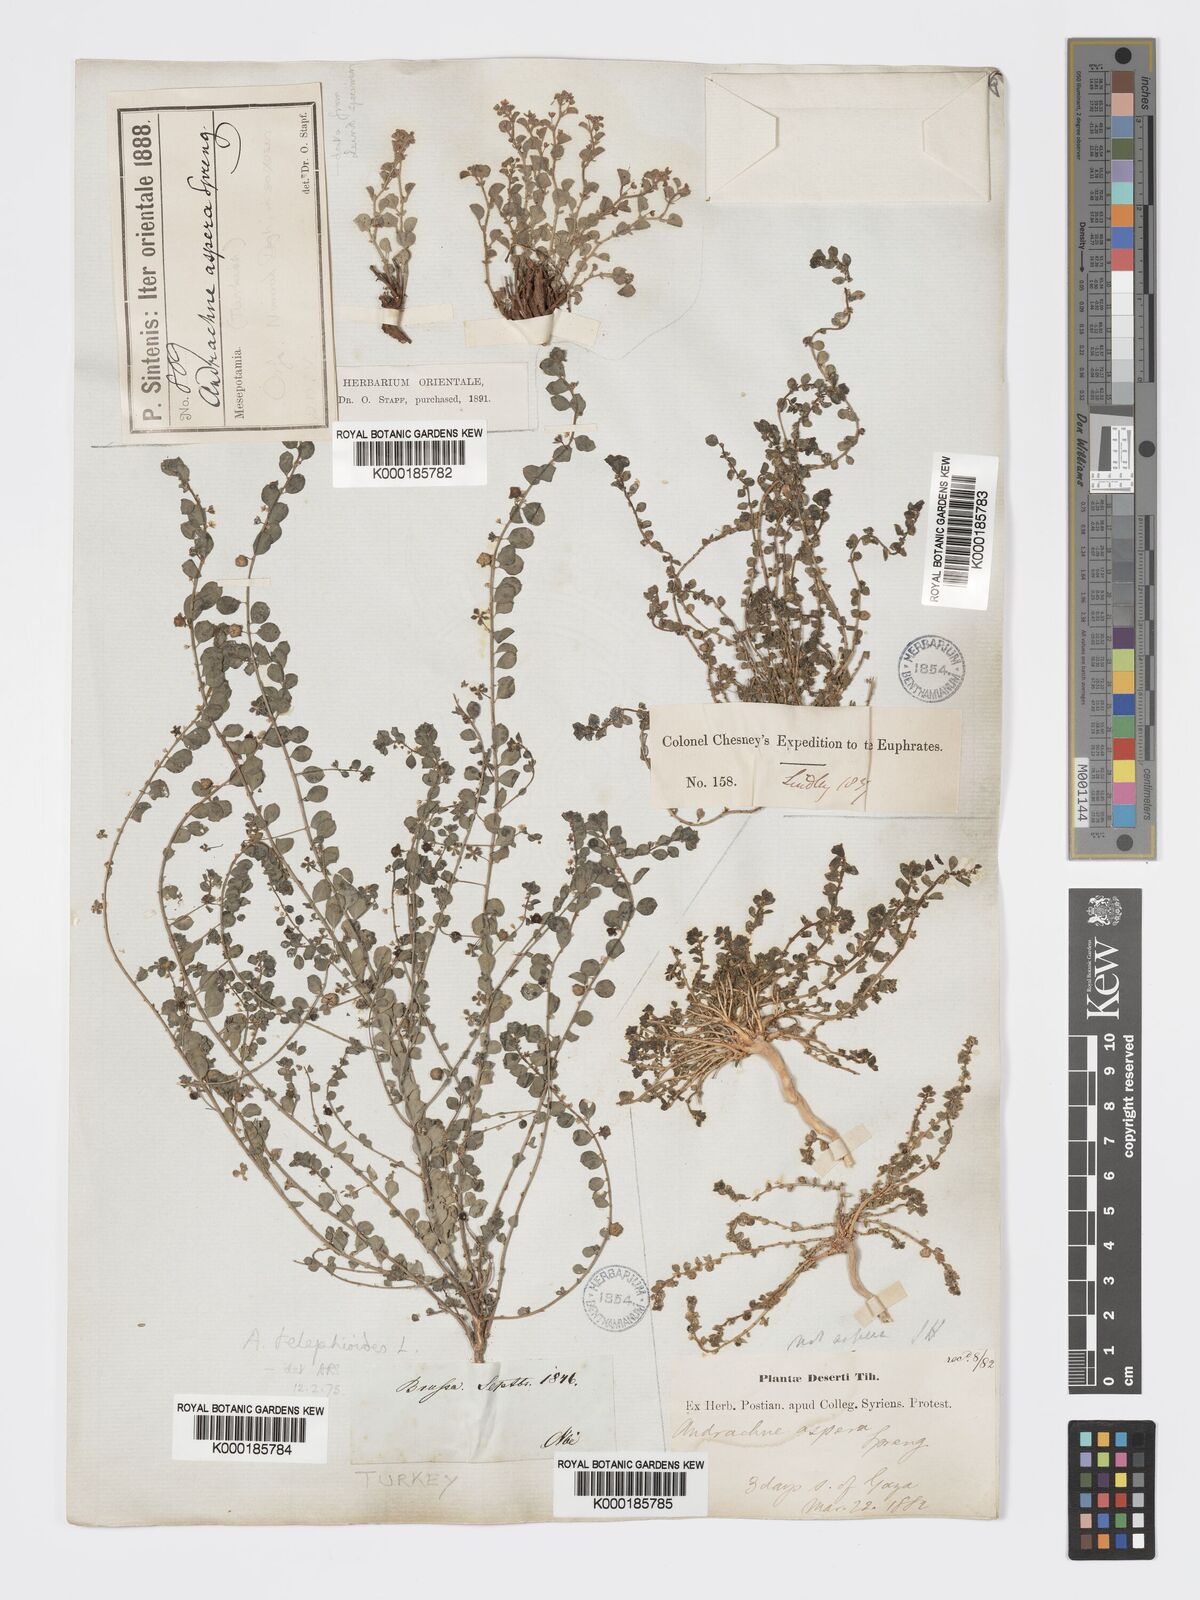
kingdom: Plantae
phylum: Tracheophyta
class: Magnoliopsida
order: Malpighiales
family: Phyllanthaceae
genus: Andrachne
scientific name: Andrachne aspera
